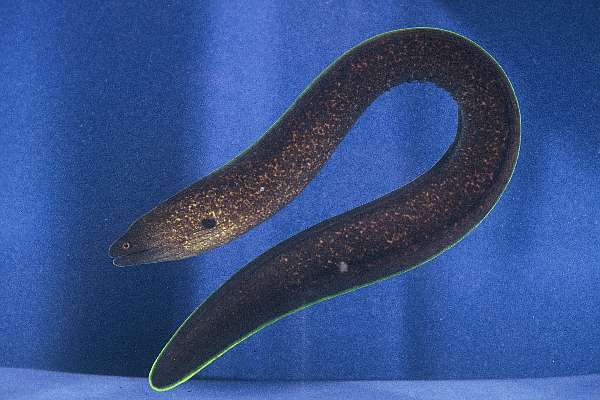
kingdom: Animalia
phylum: Chordata
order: Anguilliformes
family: Muraenidae
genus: Gymnothorax
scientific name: Gymnothorax flavimarginatus
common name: Yellow-edged moray
